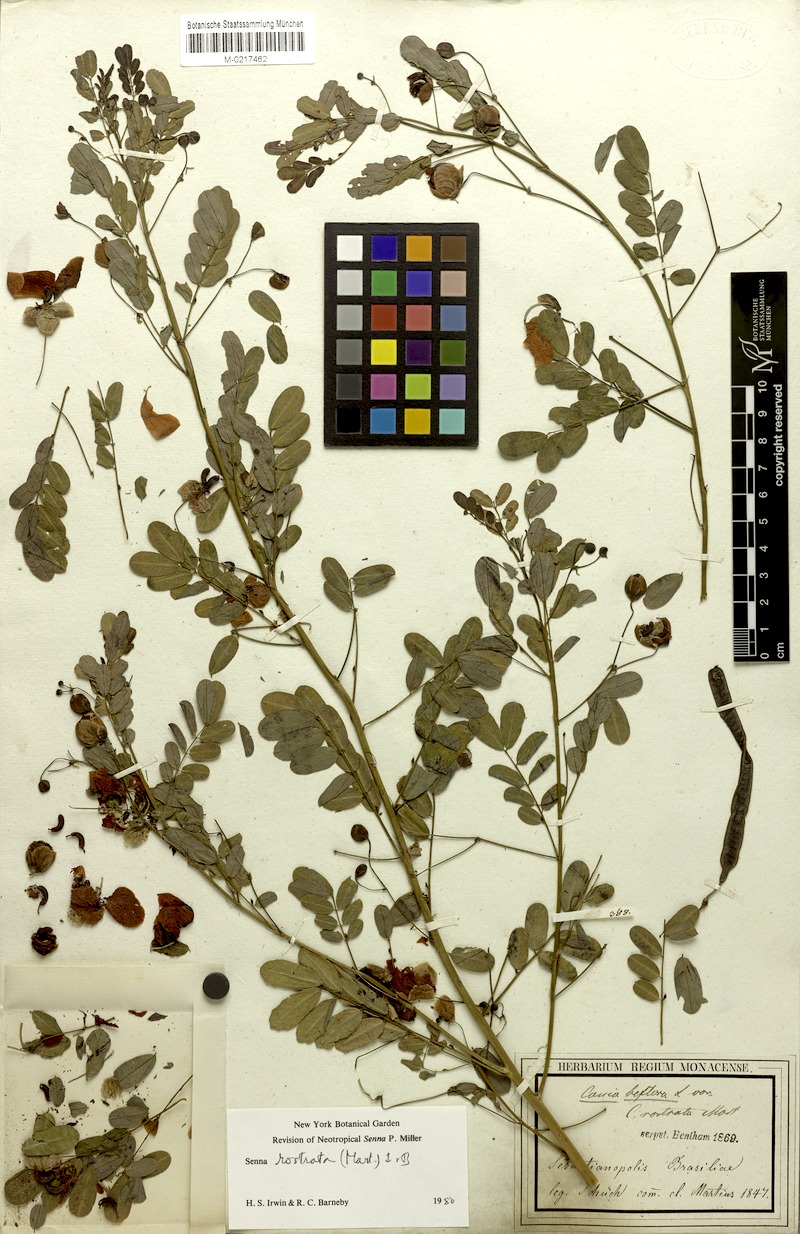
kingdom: Plantae
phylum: Tracheophyta
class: Magnoliopsida
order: Fabales
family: Fabaceae
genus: Senna
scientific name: Senna rostrata
